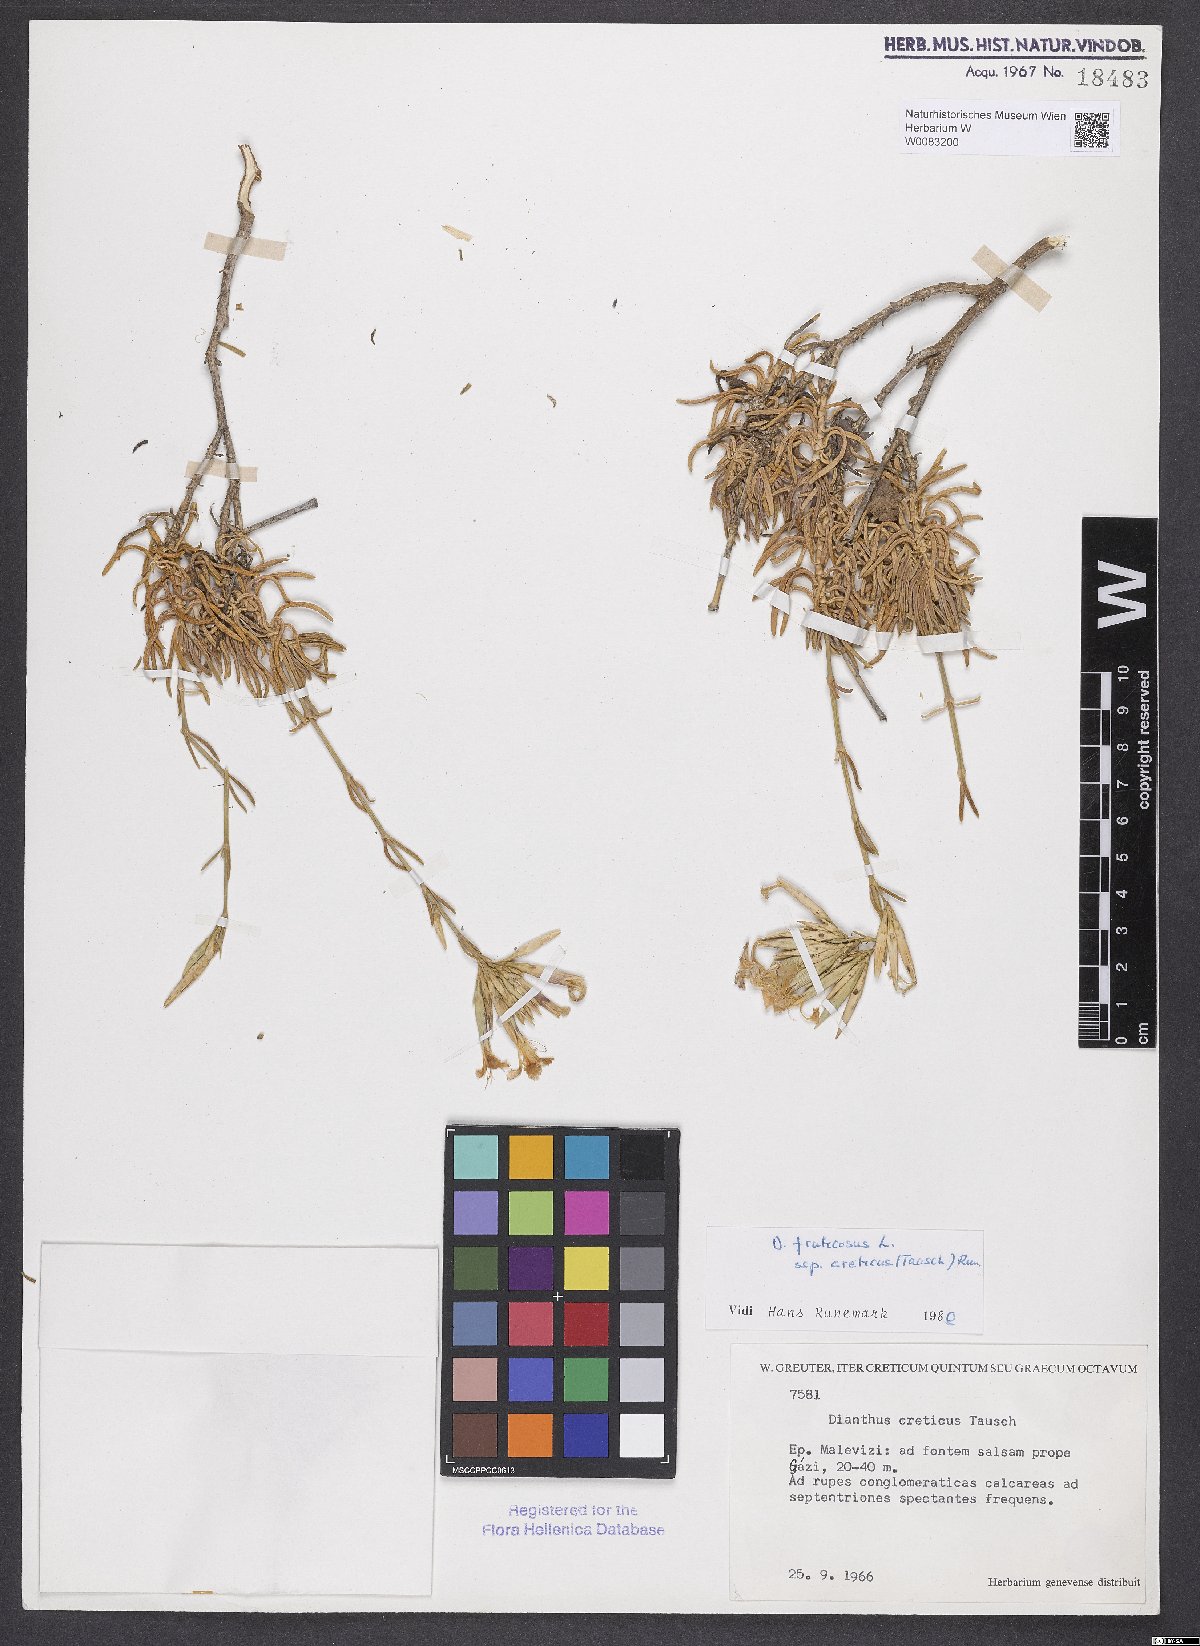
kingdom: Plantae
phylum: Tracheophyta
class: Magnoliopsida
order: Caryophyllales
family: Caryophyllaceae
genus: Dianthus
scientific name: Dianthus fruticosus
